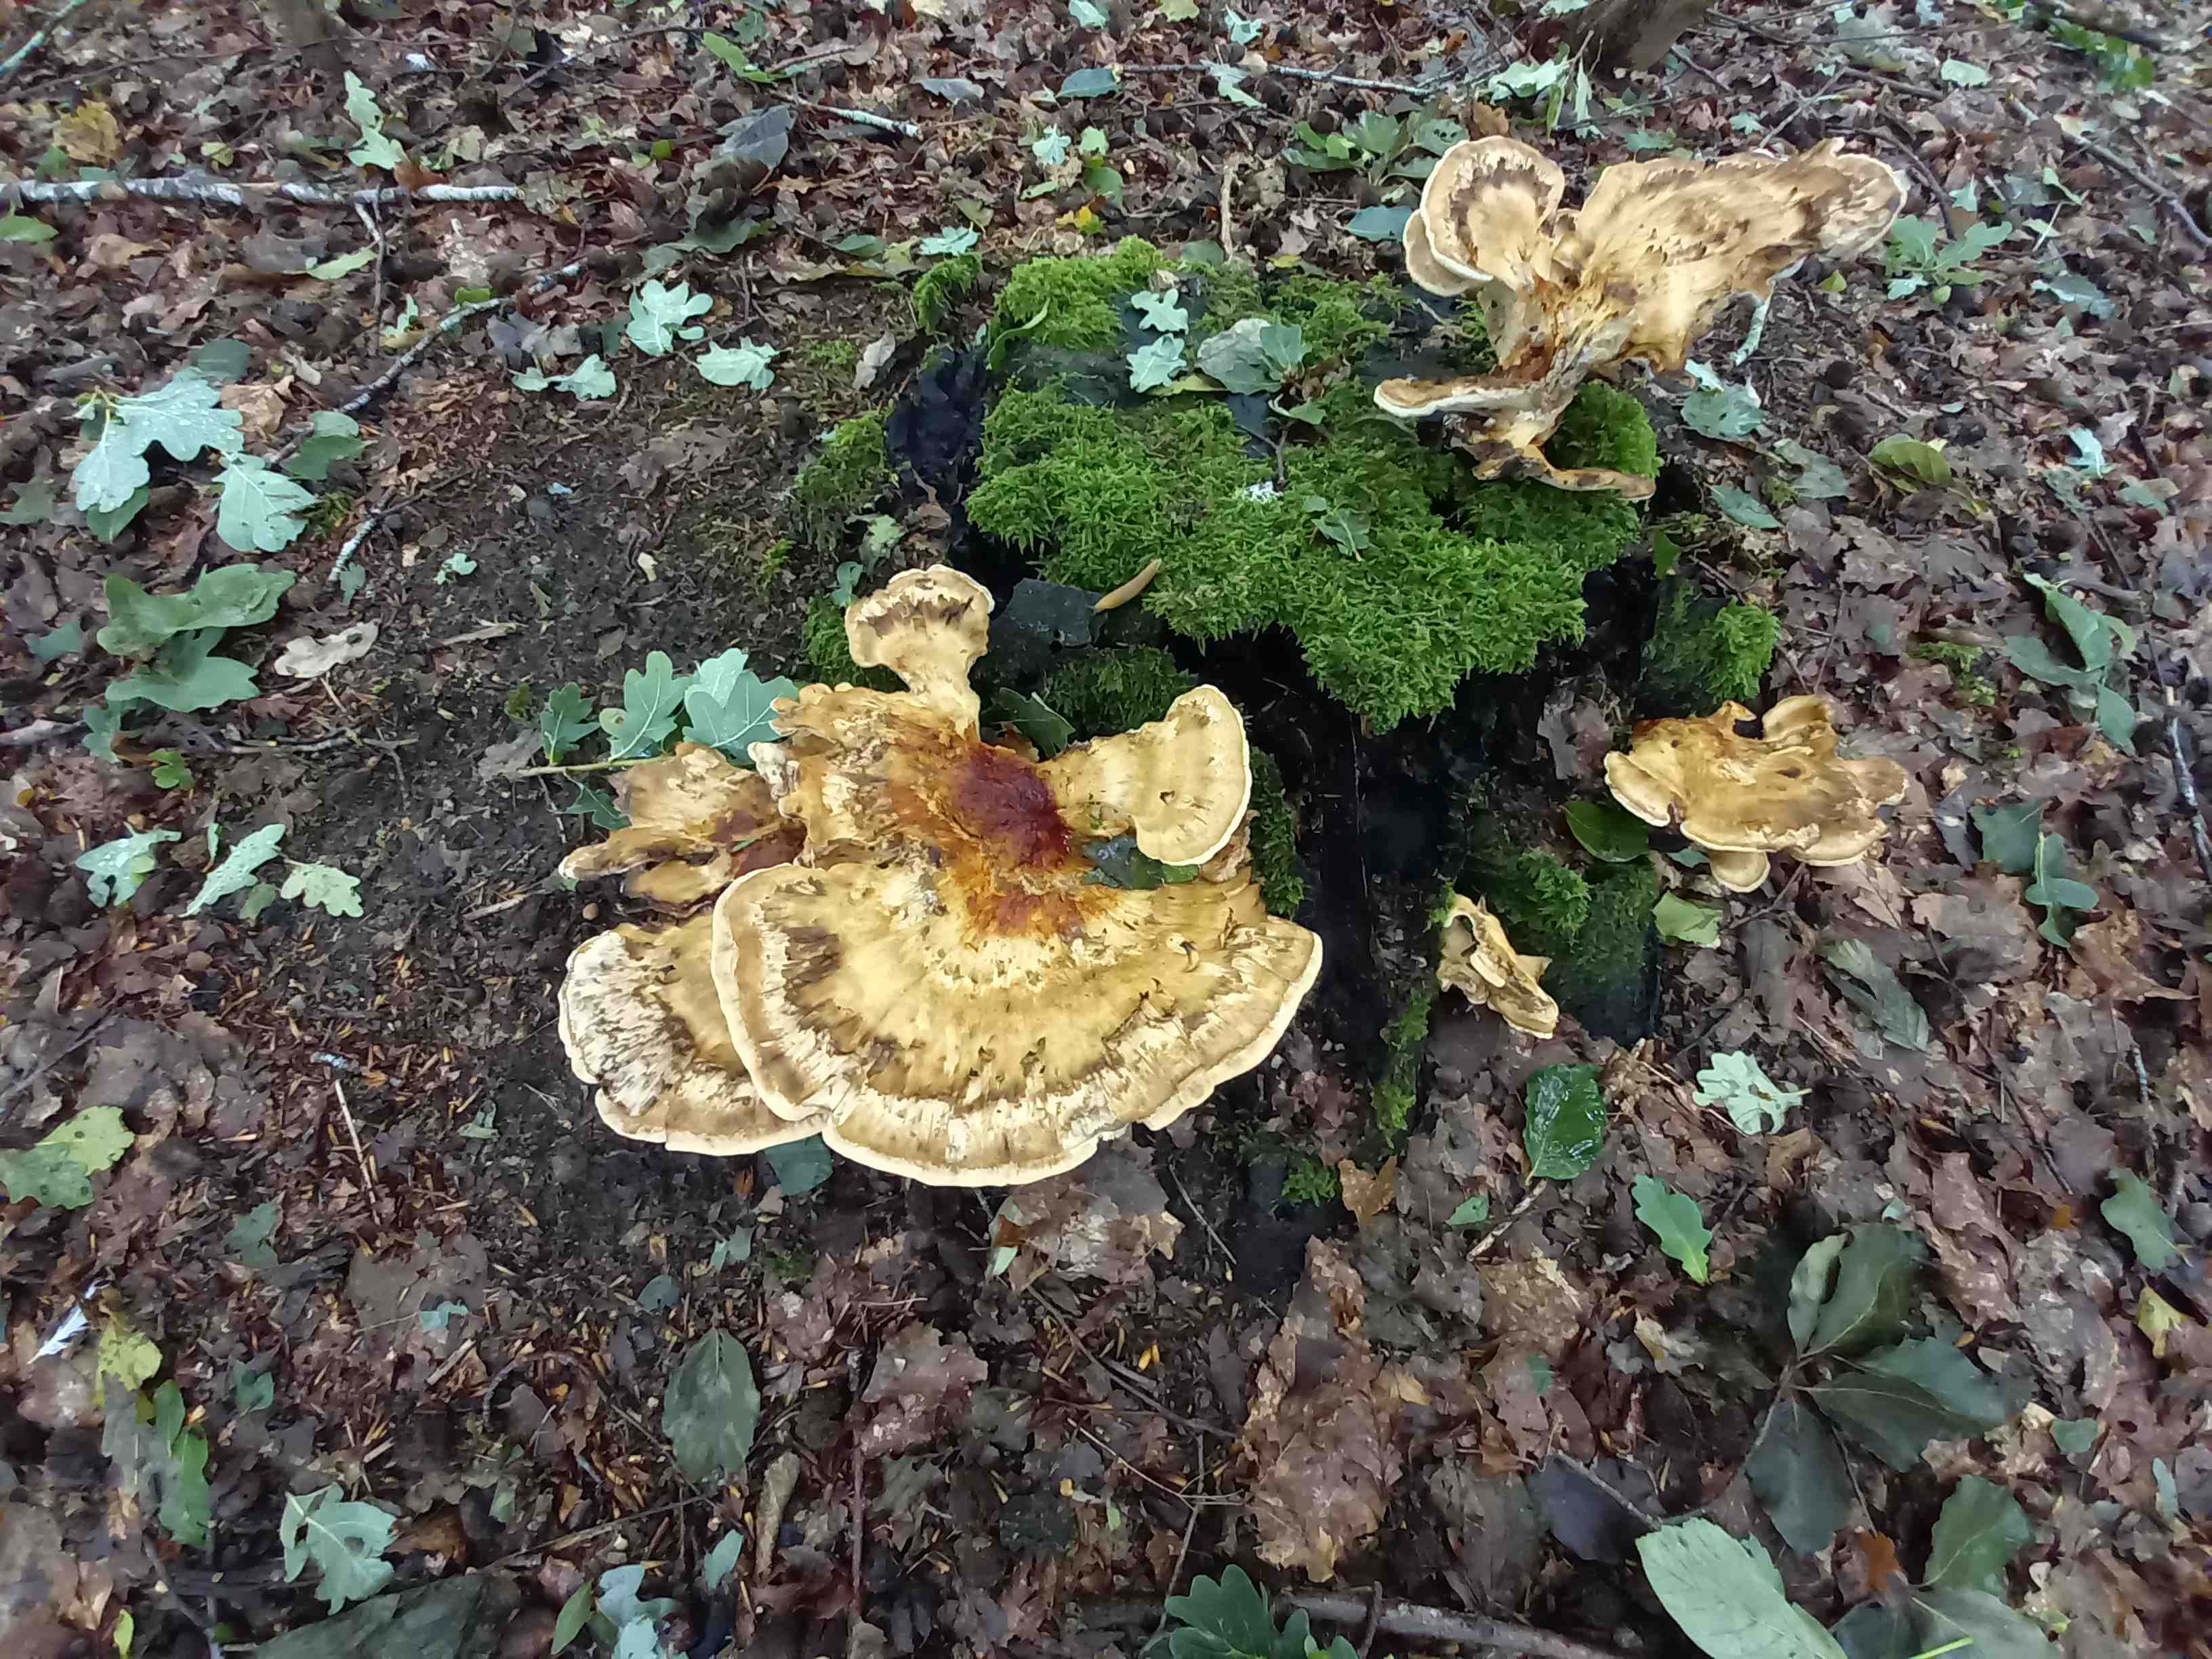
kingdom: Fungi
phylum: Basidiomycota
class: Agaricomycetes
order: Polyporales
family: Meripilaceae
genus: Meripilus
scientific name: Meripilus giganteus
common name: kæmpeporesvamp
